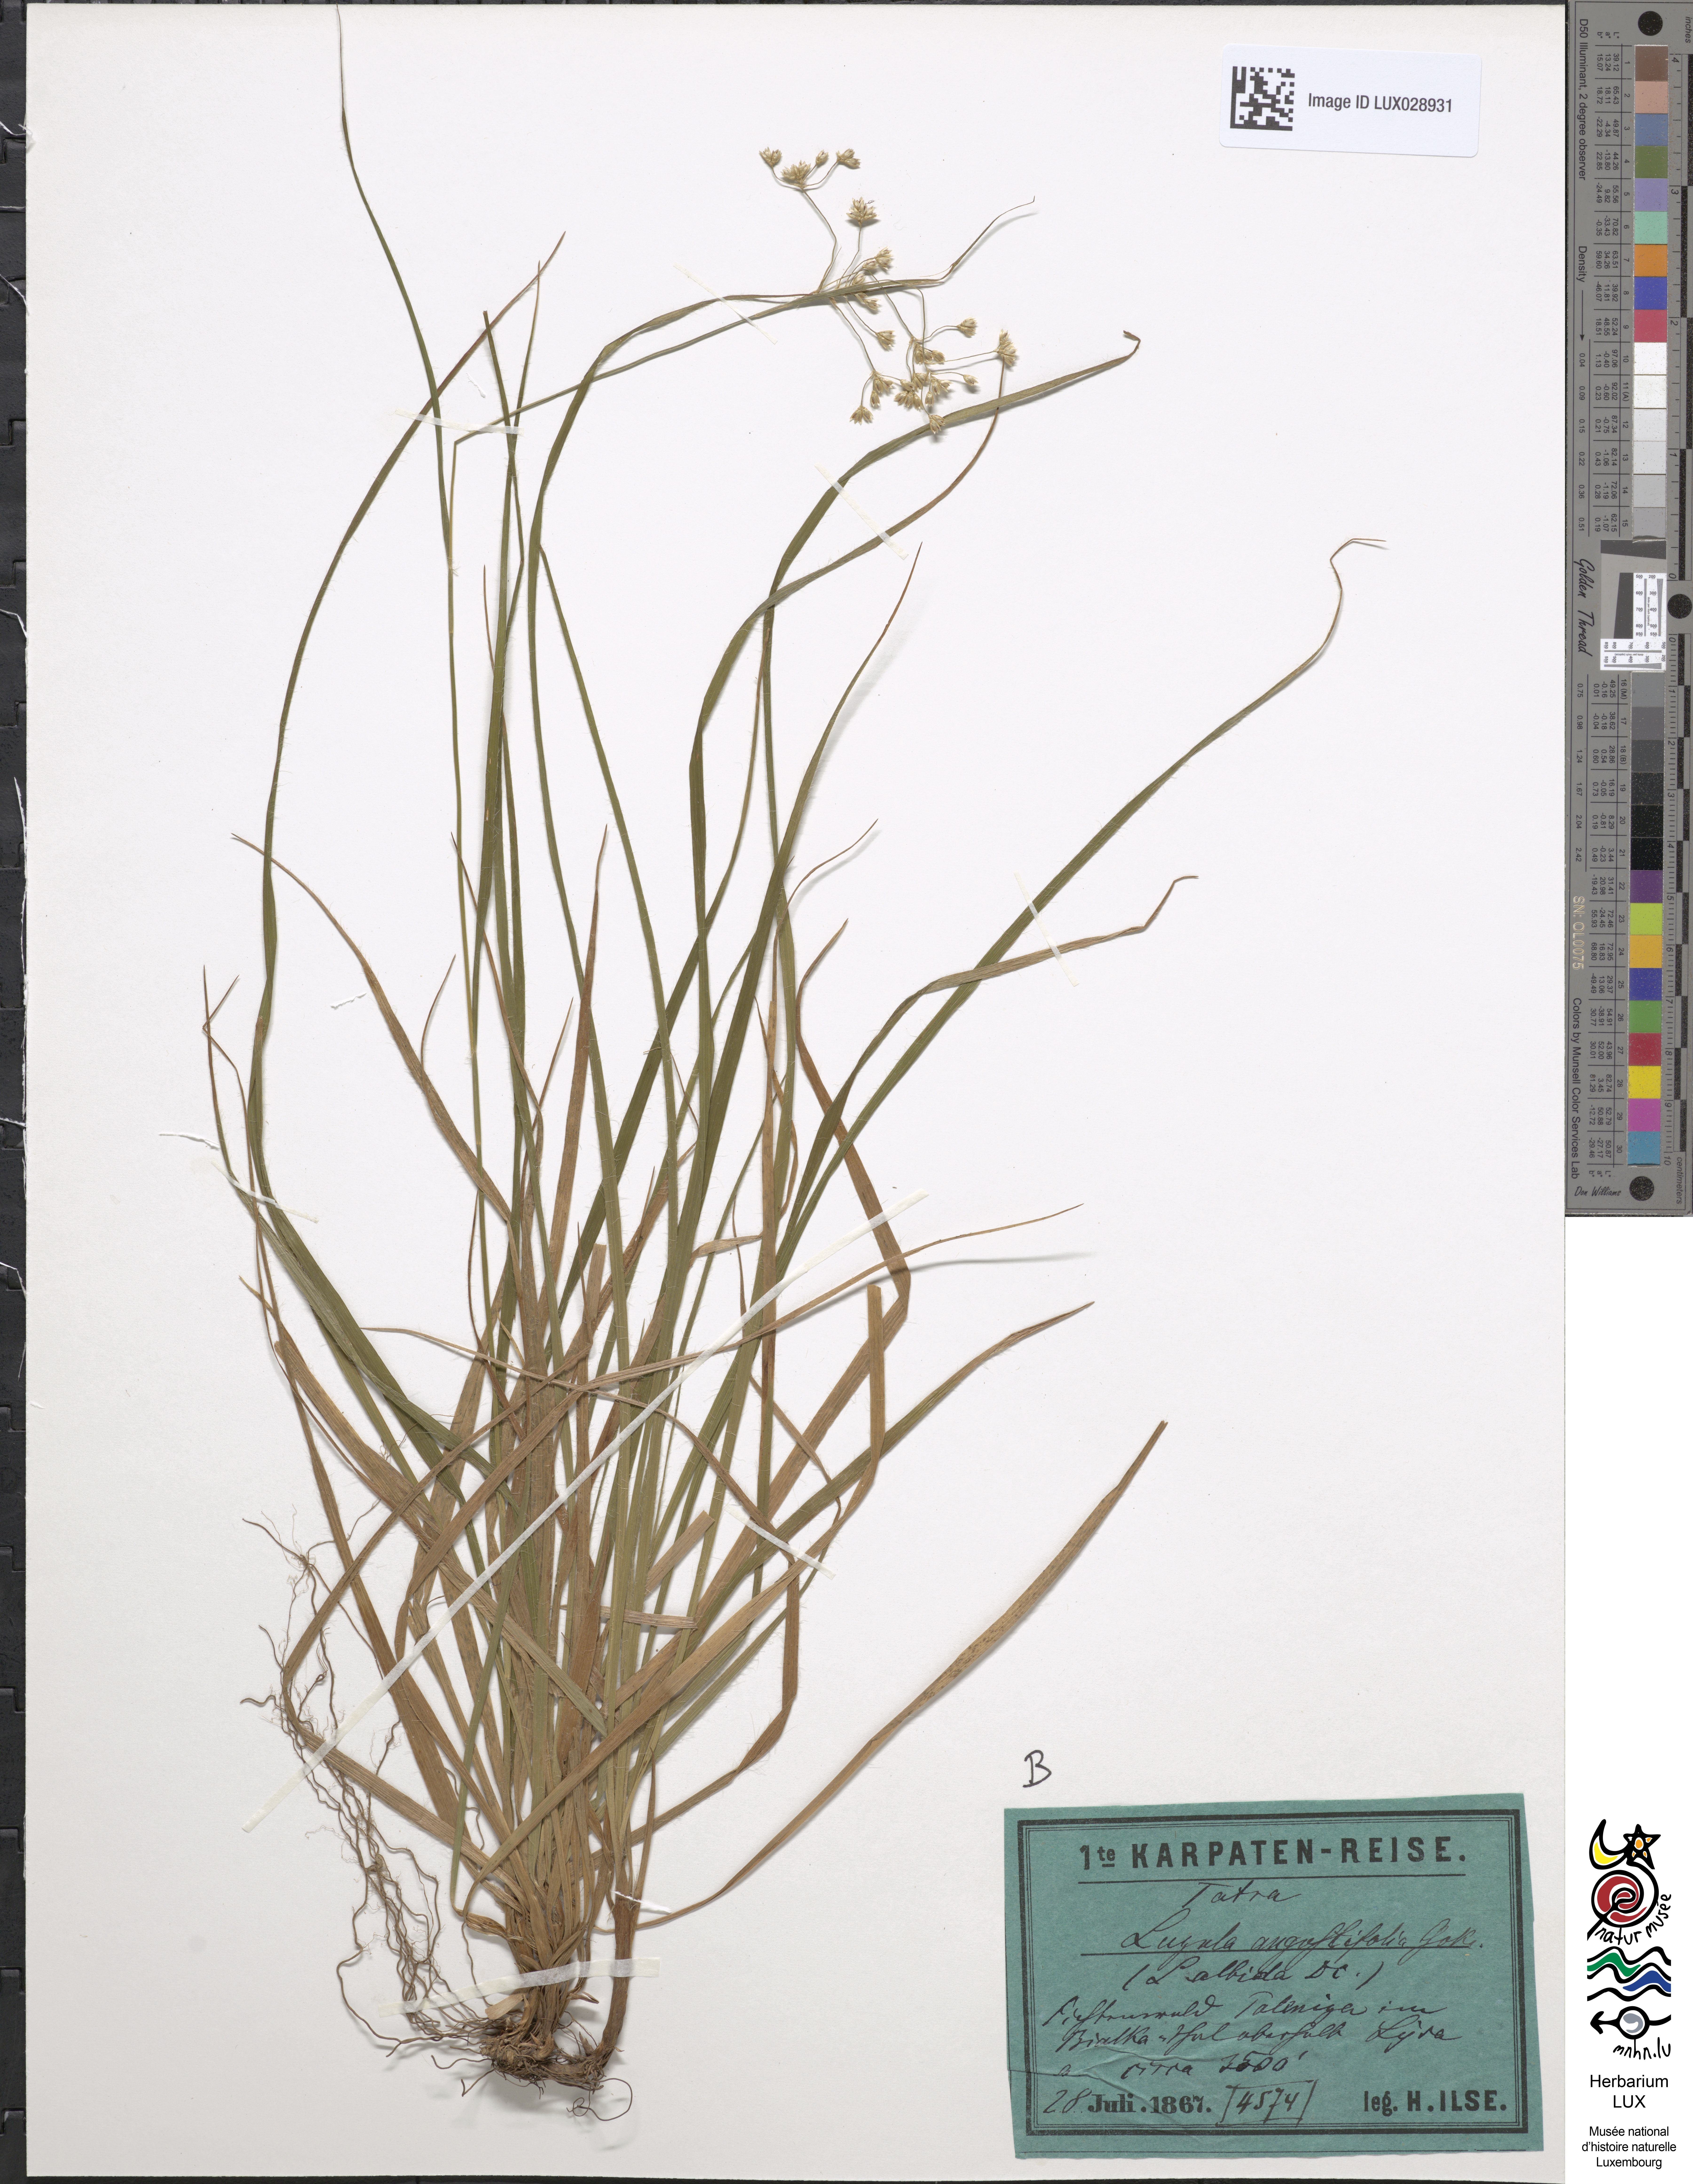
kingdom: Plantae
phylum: Tracheophyta
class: Liliopsida
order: Poales
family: Juncaceae
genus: Luzula
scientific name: Luzula luzuloides
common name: White wood-rush
